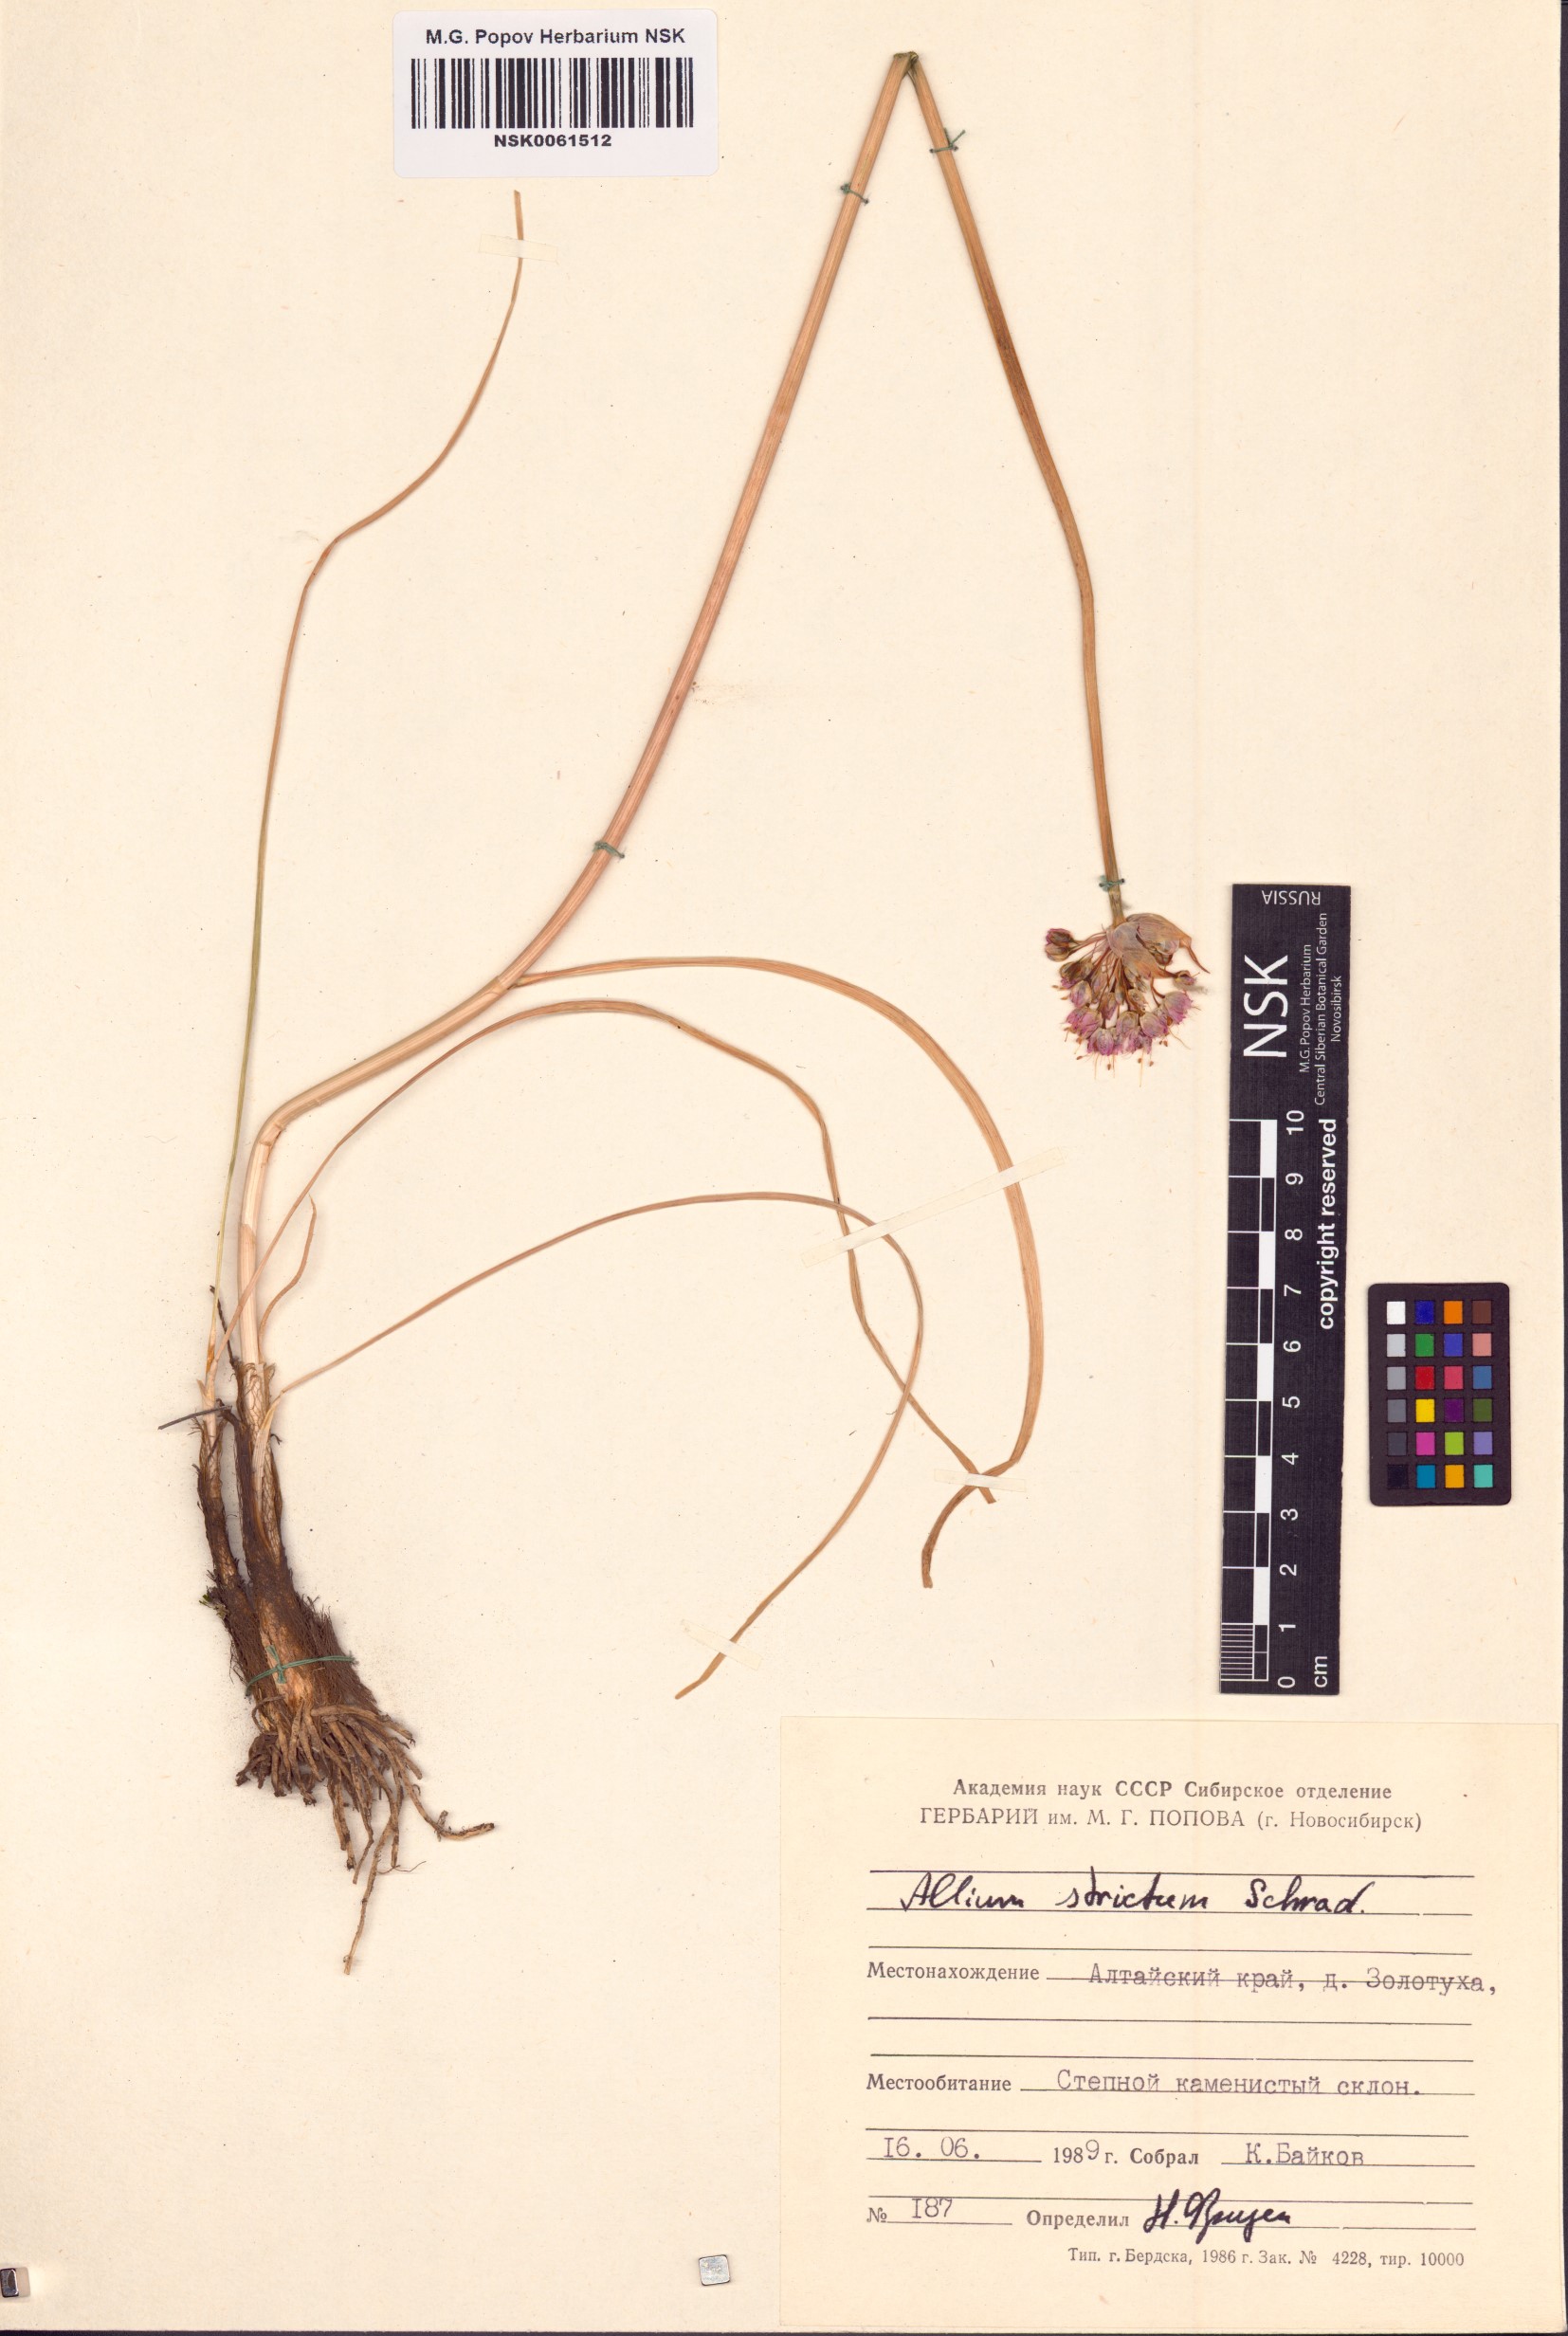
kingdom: Plantae
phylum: Tracheophyta
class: Liliopsida
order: Asparagales
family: Amaryllidaceae
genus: Allium
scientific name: Allium strictum
